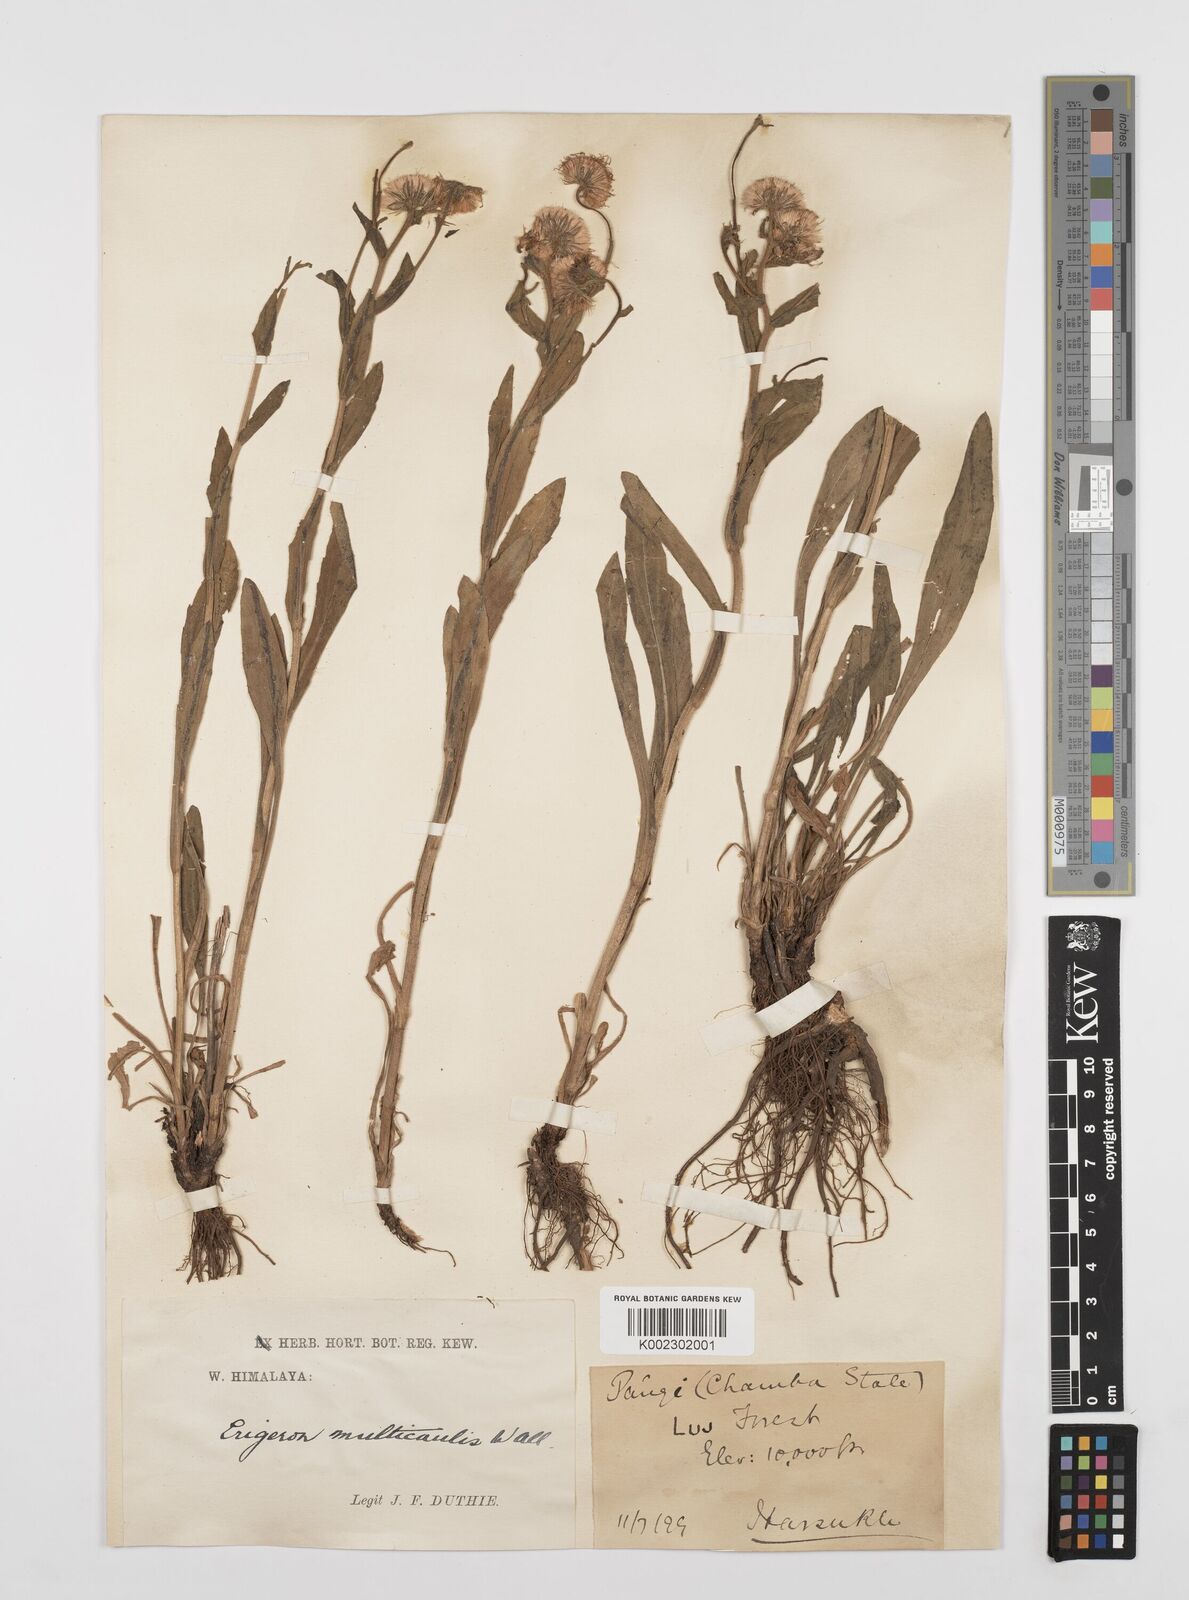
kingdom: Plantae
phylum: Tracheophyta
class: Magnoliopsida
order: Asterales
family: Asteraceae
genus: Erigeron
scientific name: Erigeron alpinus
